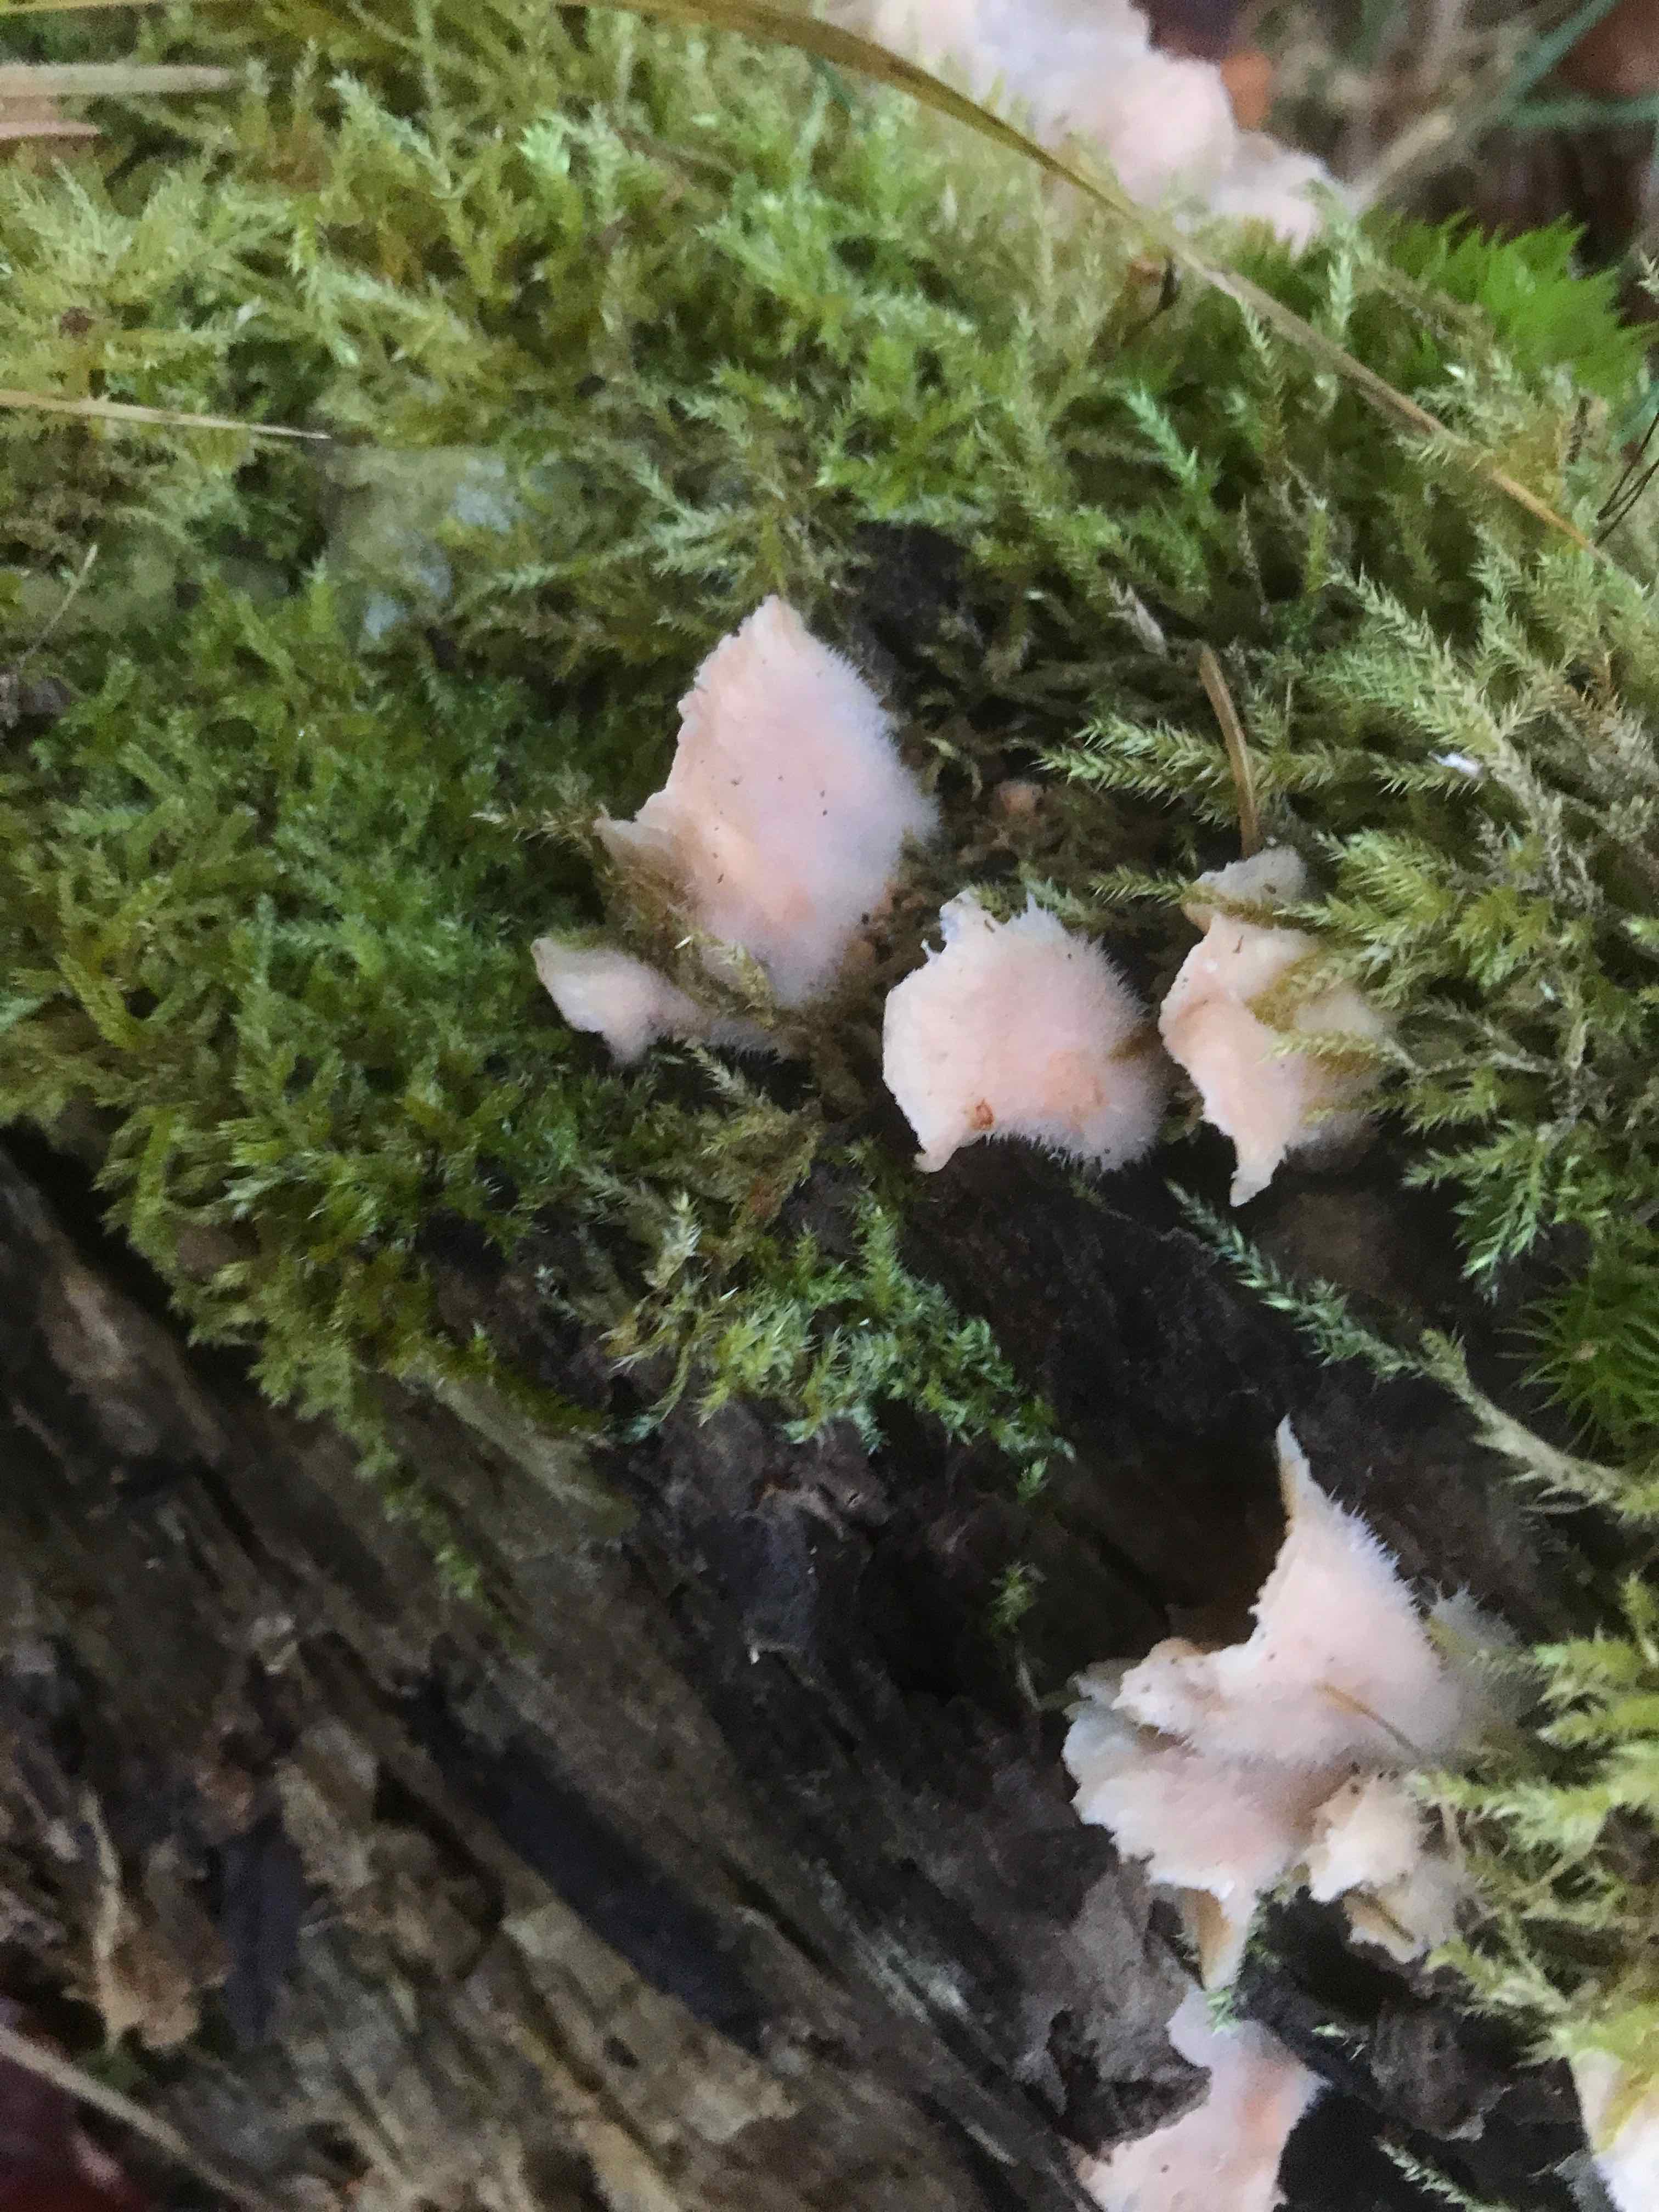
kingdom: Fungi
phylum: Basidiomycota
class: Agaricomycetes
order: Polyporales
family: Meruliaceae
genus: Phlebia
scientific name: Phlebia tremellosa
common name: bævrende åresvamp
